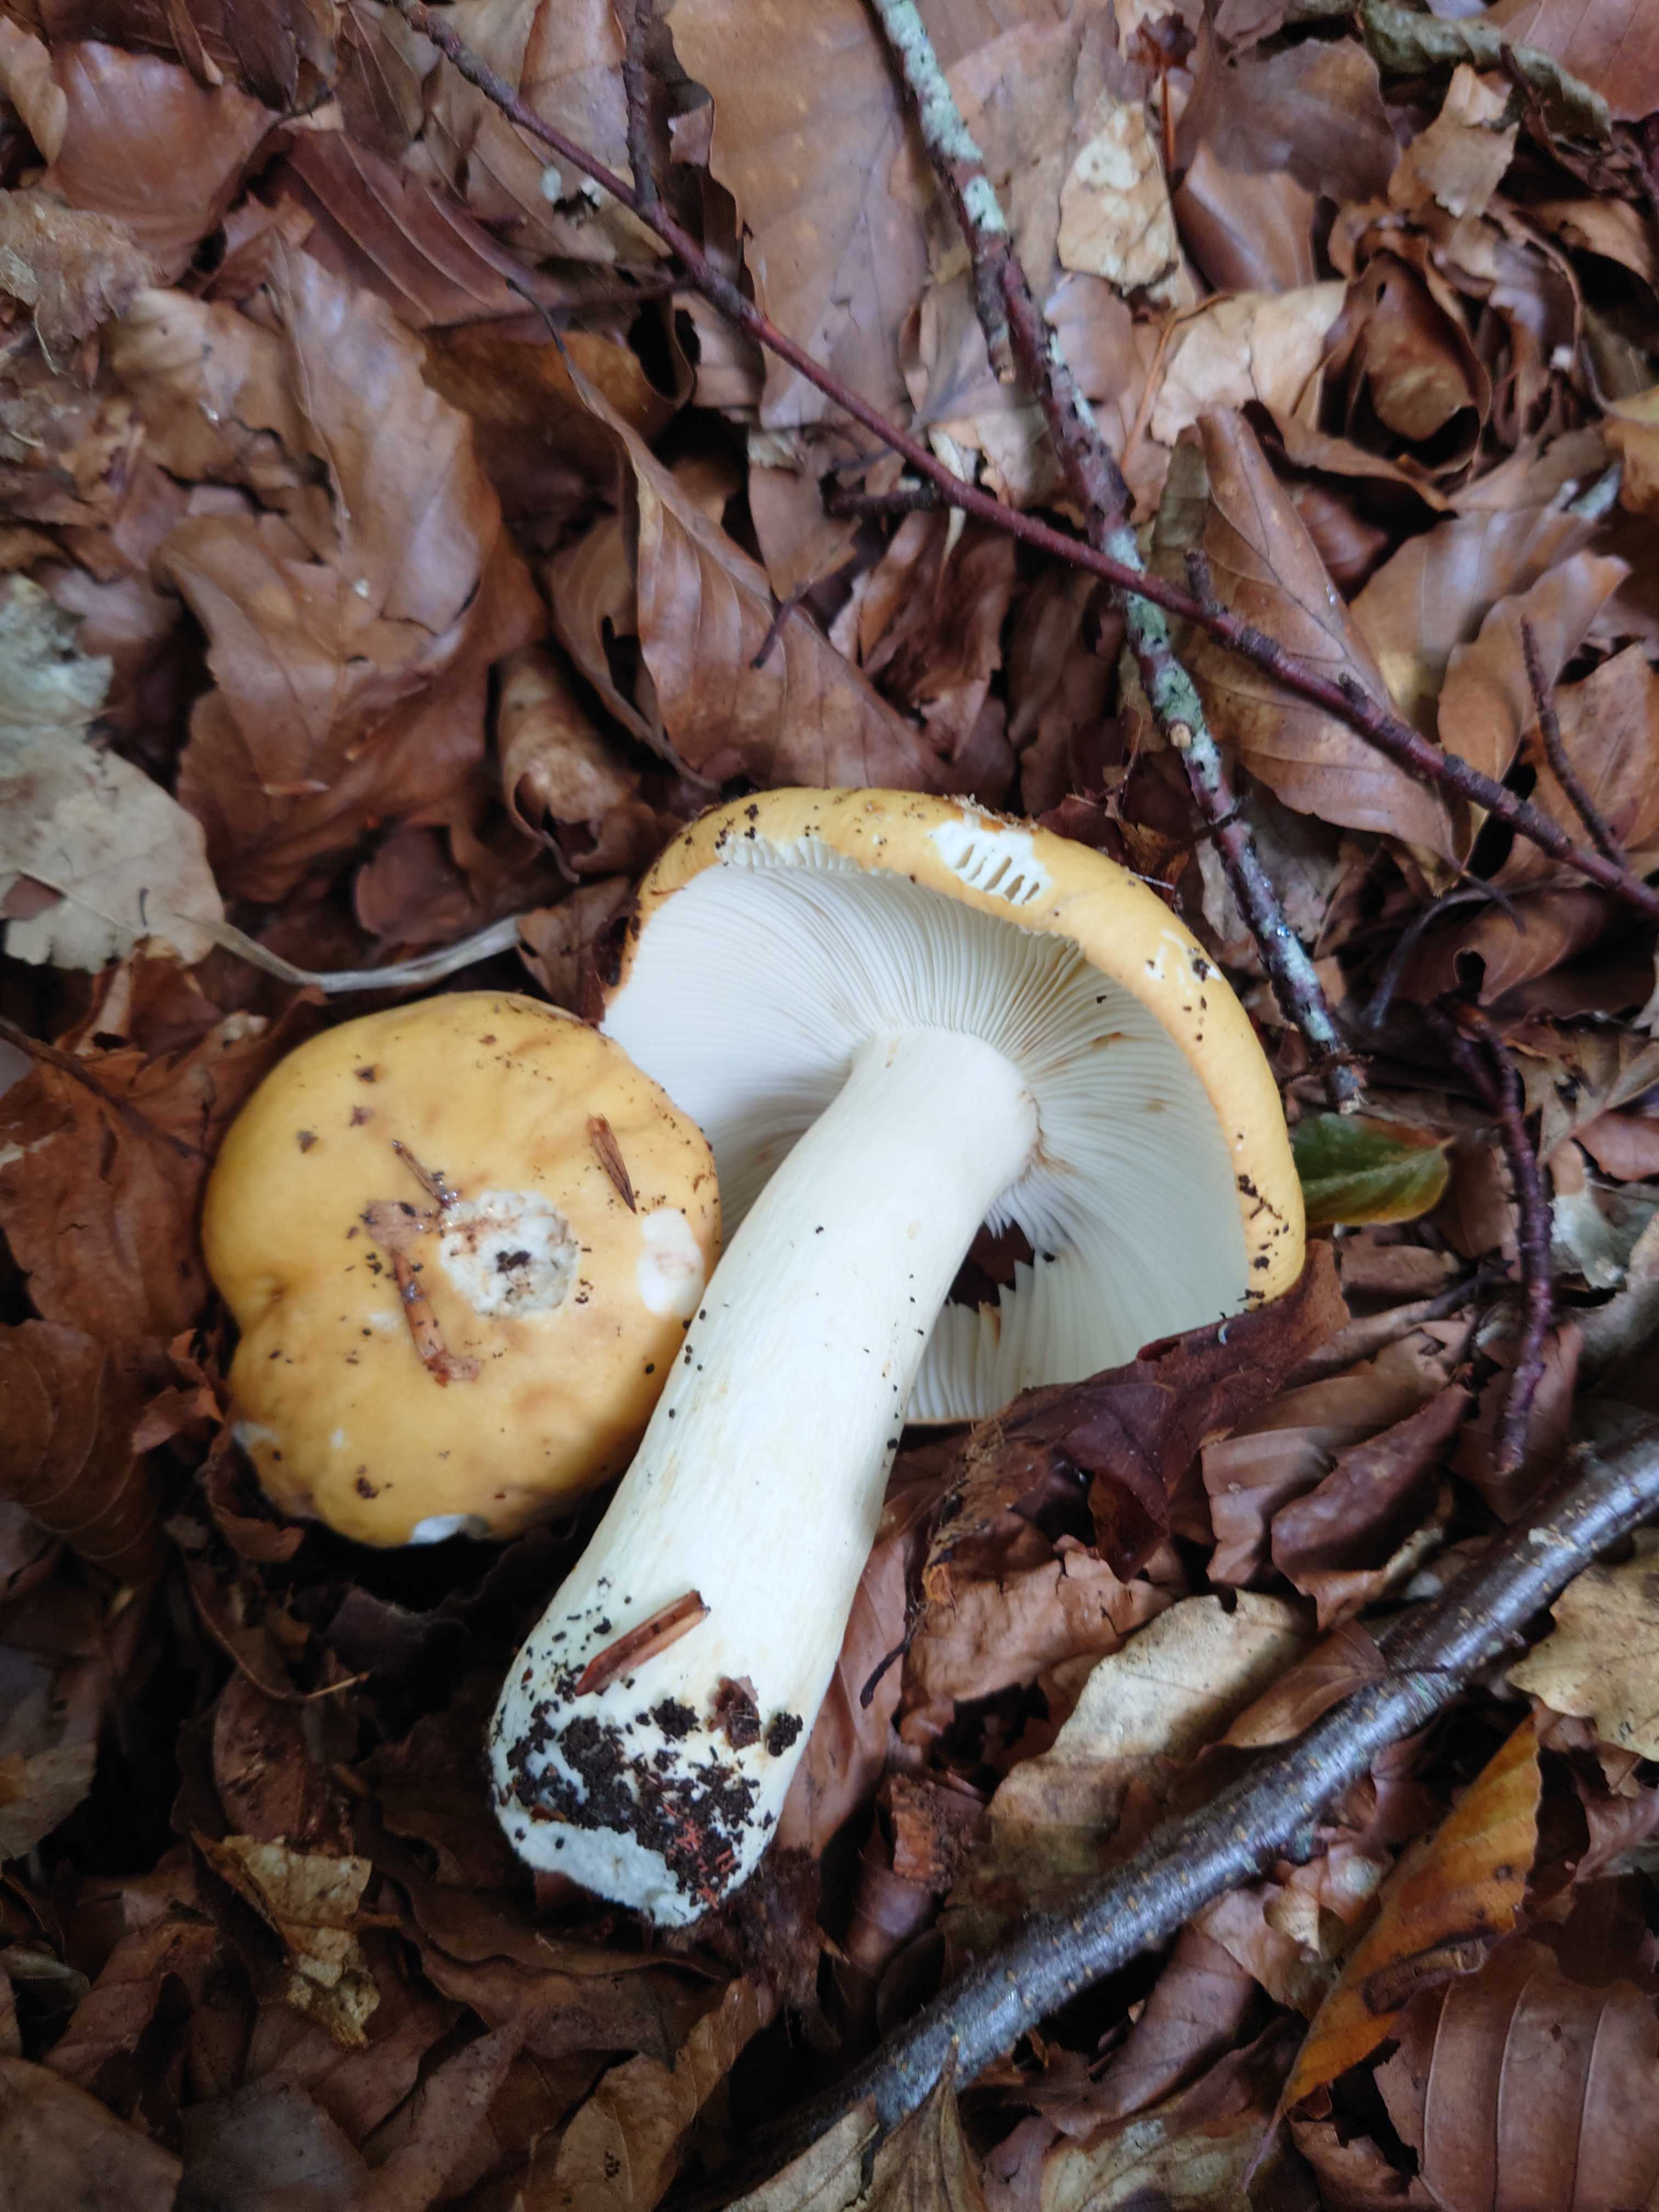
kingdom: Fungi
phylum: Basidiomycota
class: Agaricomycetes
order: Russulales
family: Russulaceae
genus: Russula
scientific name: Russula ochroleuca
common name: okkergul skørhat
